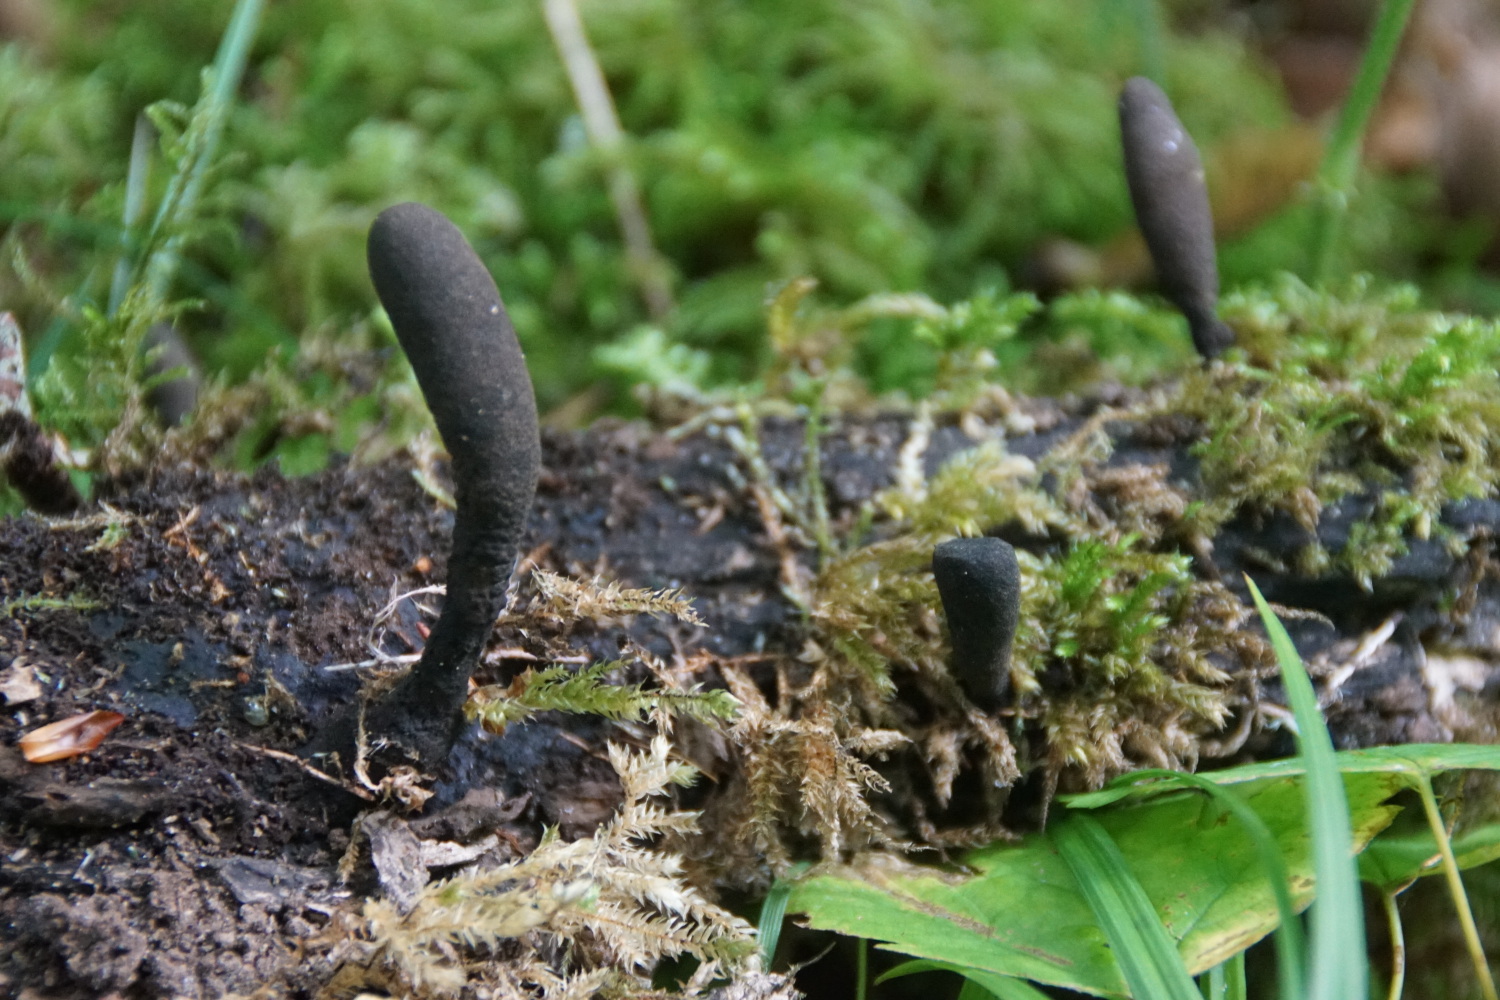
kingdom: Fungi
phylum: Ascomycota
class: Sordariomycetes
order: Xylariales
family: Xylariaceae
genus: Xylaria
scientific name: Xylaria longipes
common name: slank stødsvamp
